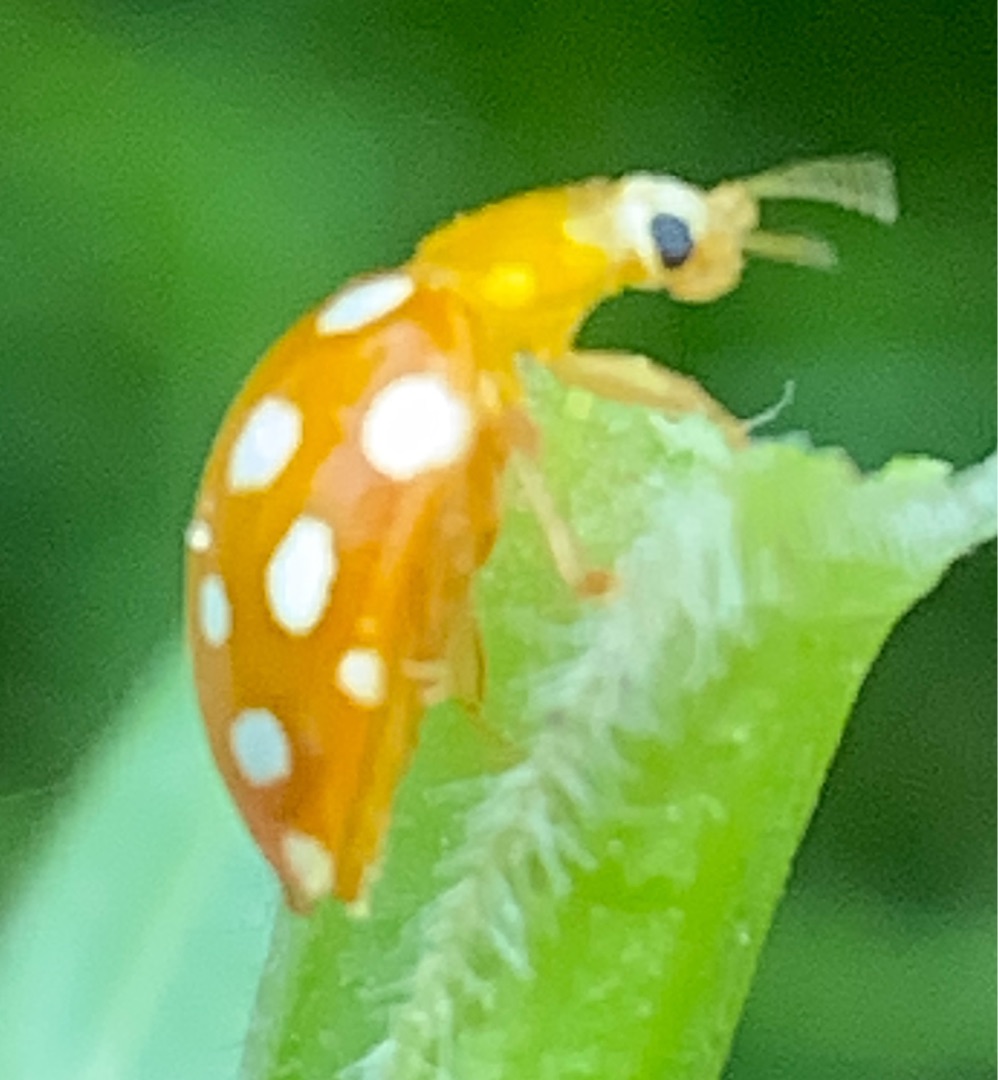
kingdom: Animalia
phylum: Arthropoda
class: Insecta
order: Coleoptera
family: Coccinellidae
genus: Halyzia
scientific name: Halyzia sedecimguttata
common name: Sekstenplettet mariehøne
